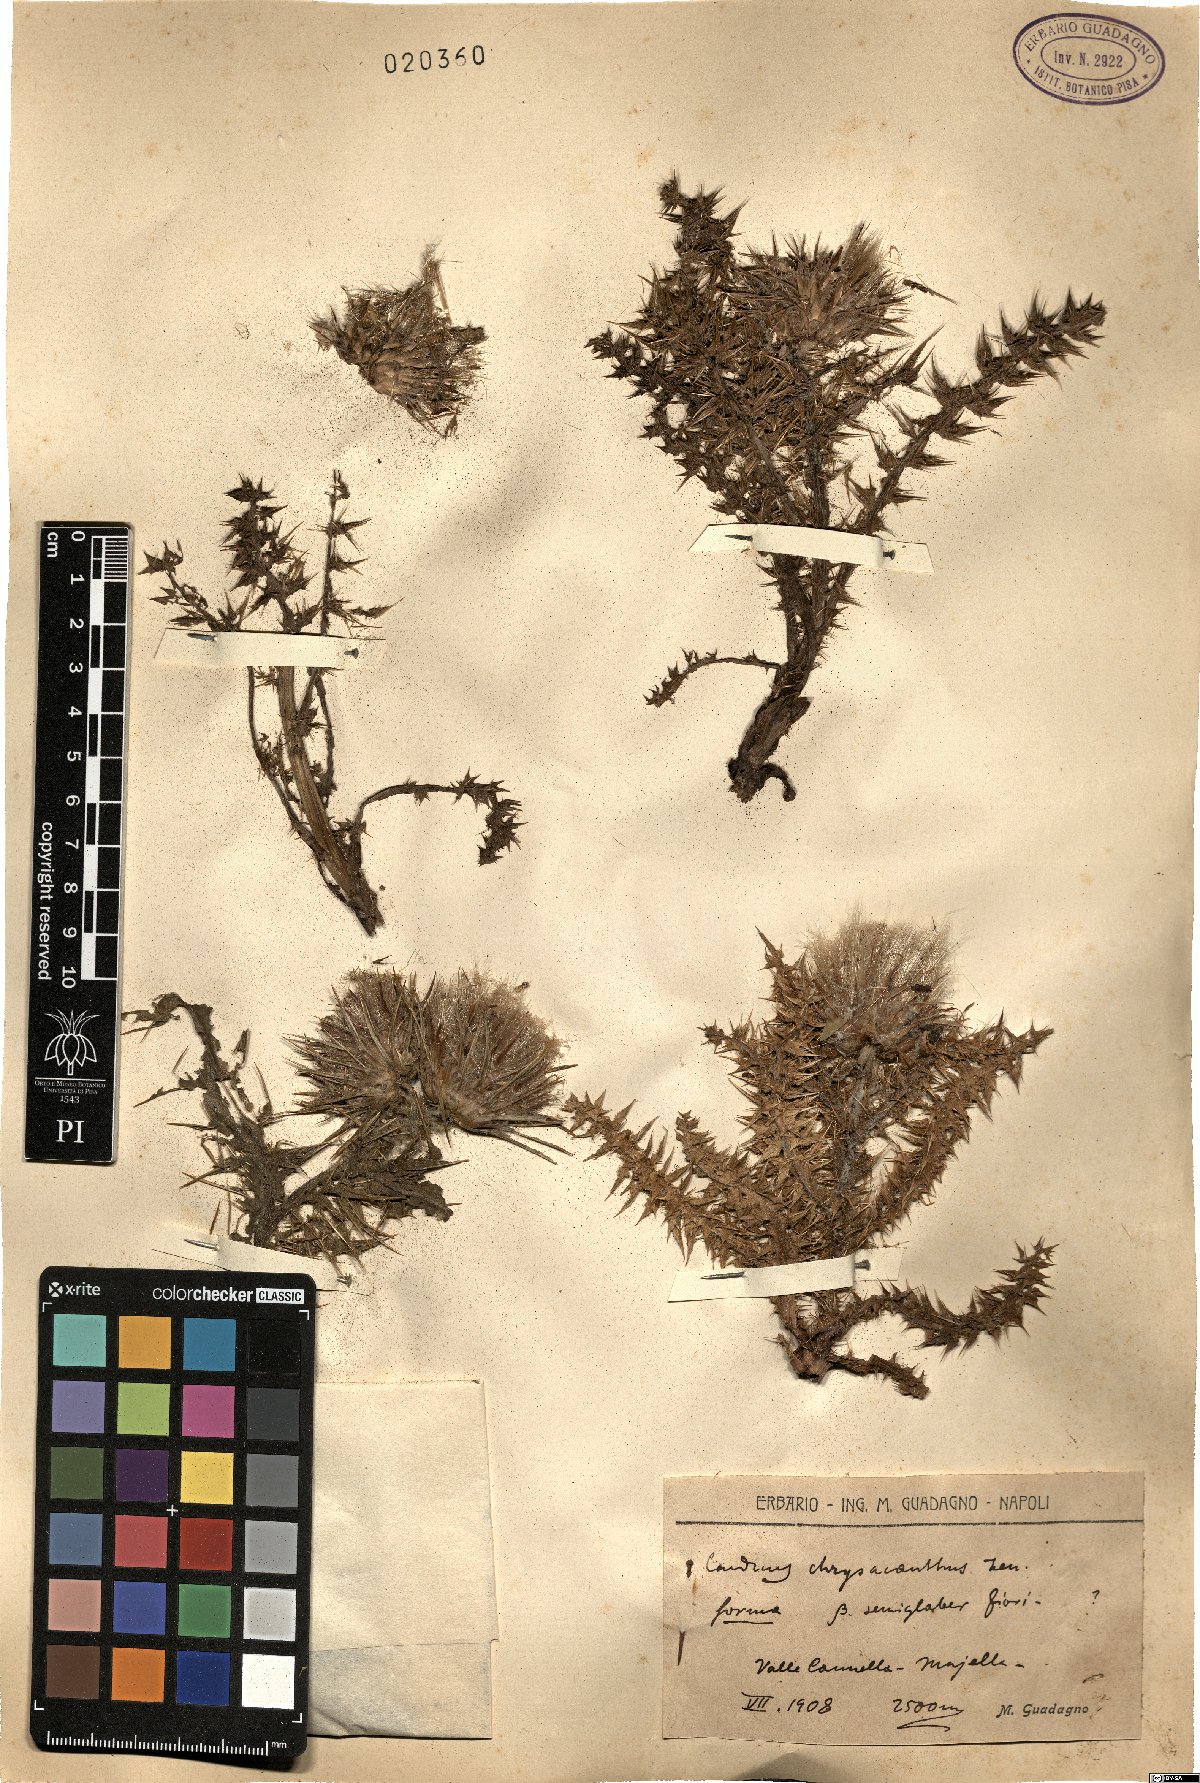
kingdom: Plantae
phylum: Tracheophyta
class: Magnoliopsida
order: Asterales
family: Asteraceae
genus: Carduus
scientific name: Carduus chrysacanthus
